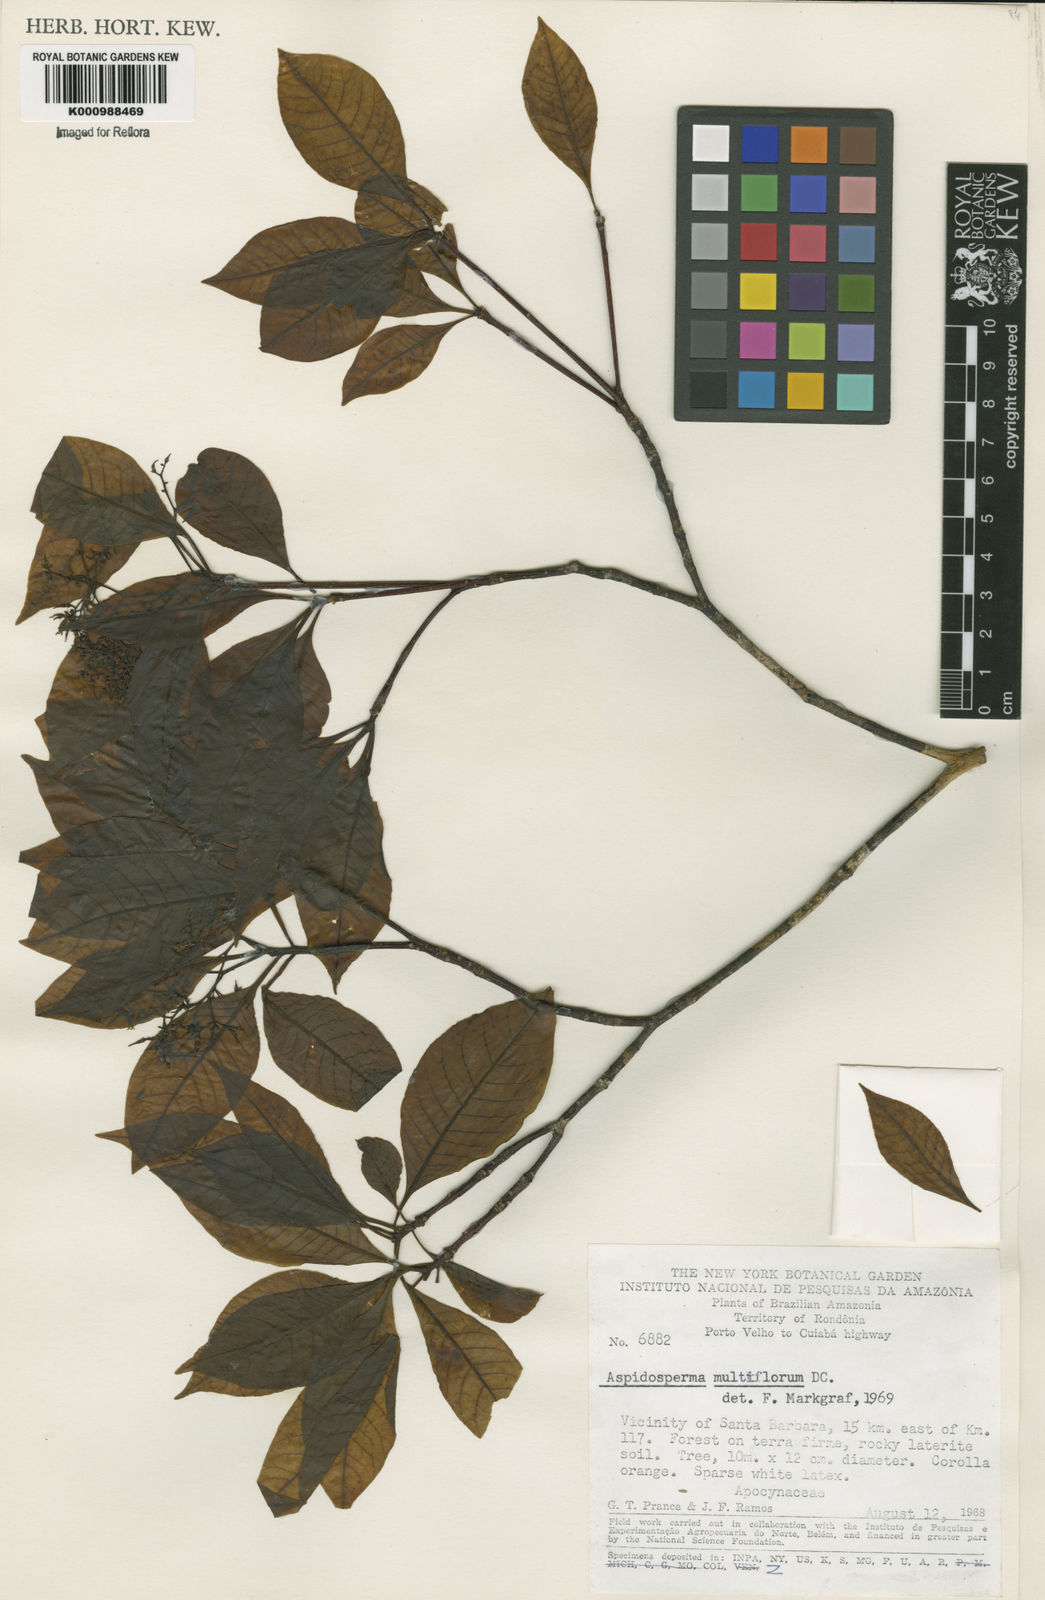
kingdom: Plantae
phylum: Tracheophyta
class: Magnoliopsida
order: Gentianales
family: Apocynaceae
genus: Aspidosperma
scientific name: Aspidosperma multiflorum
